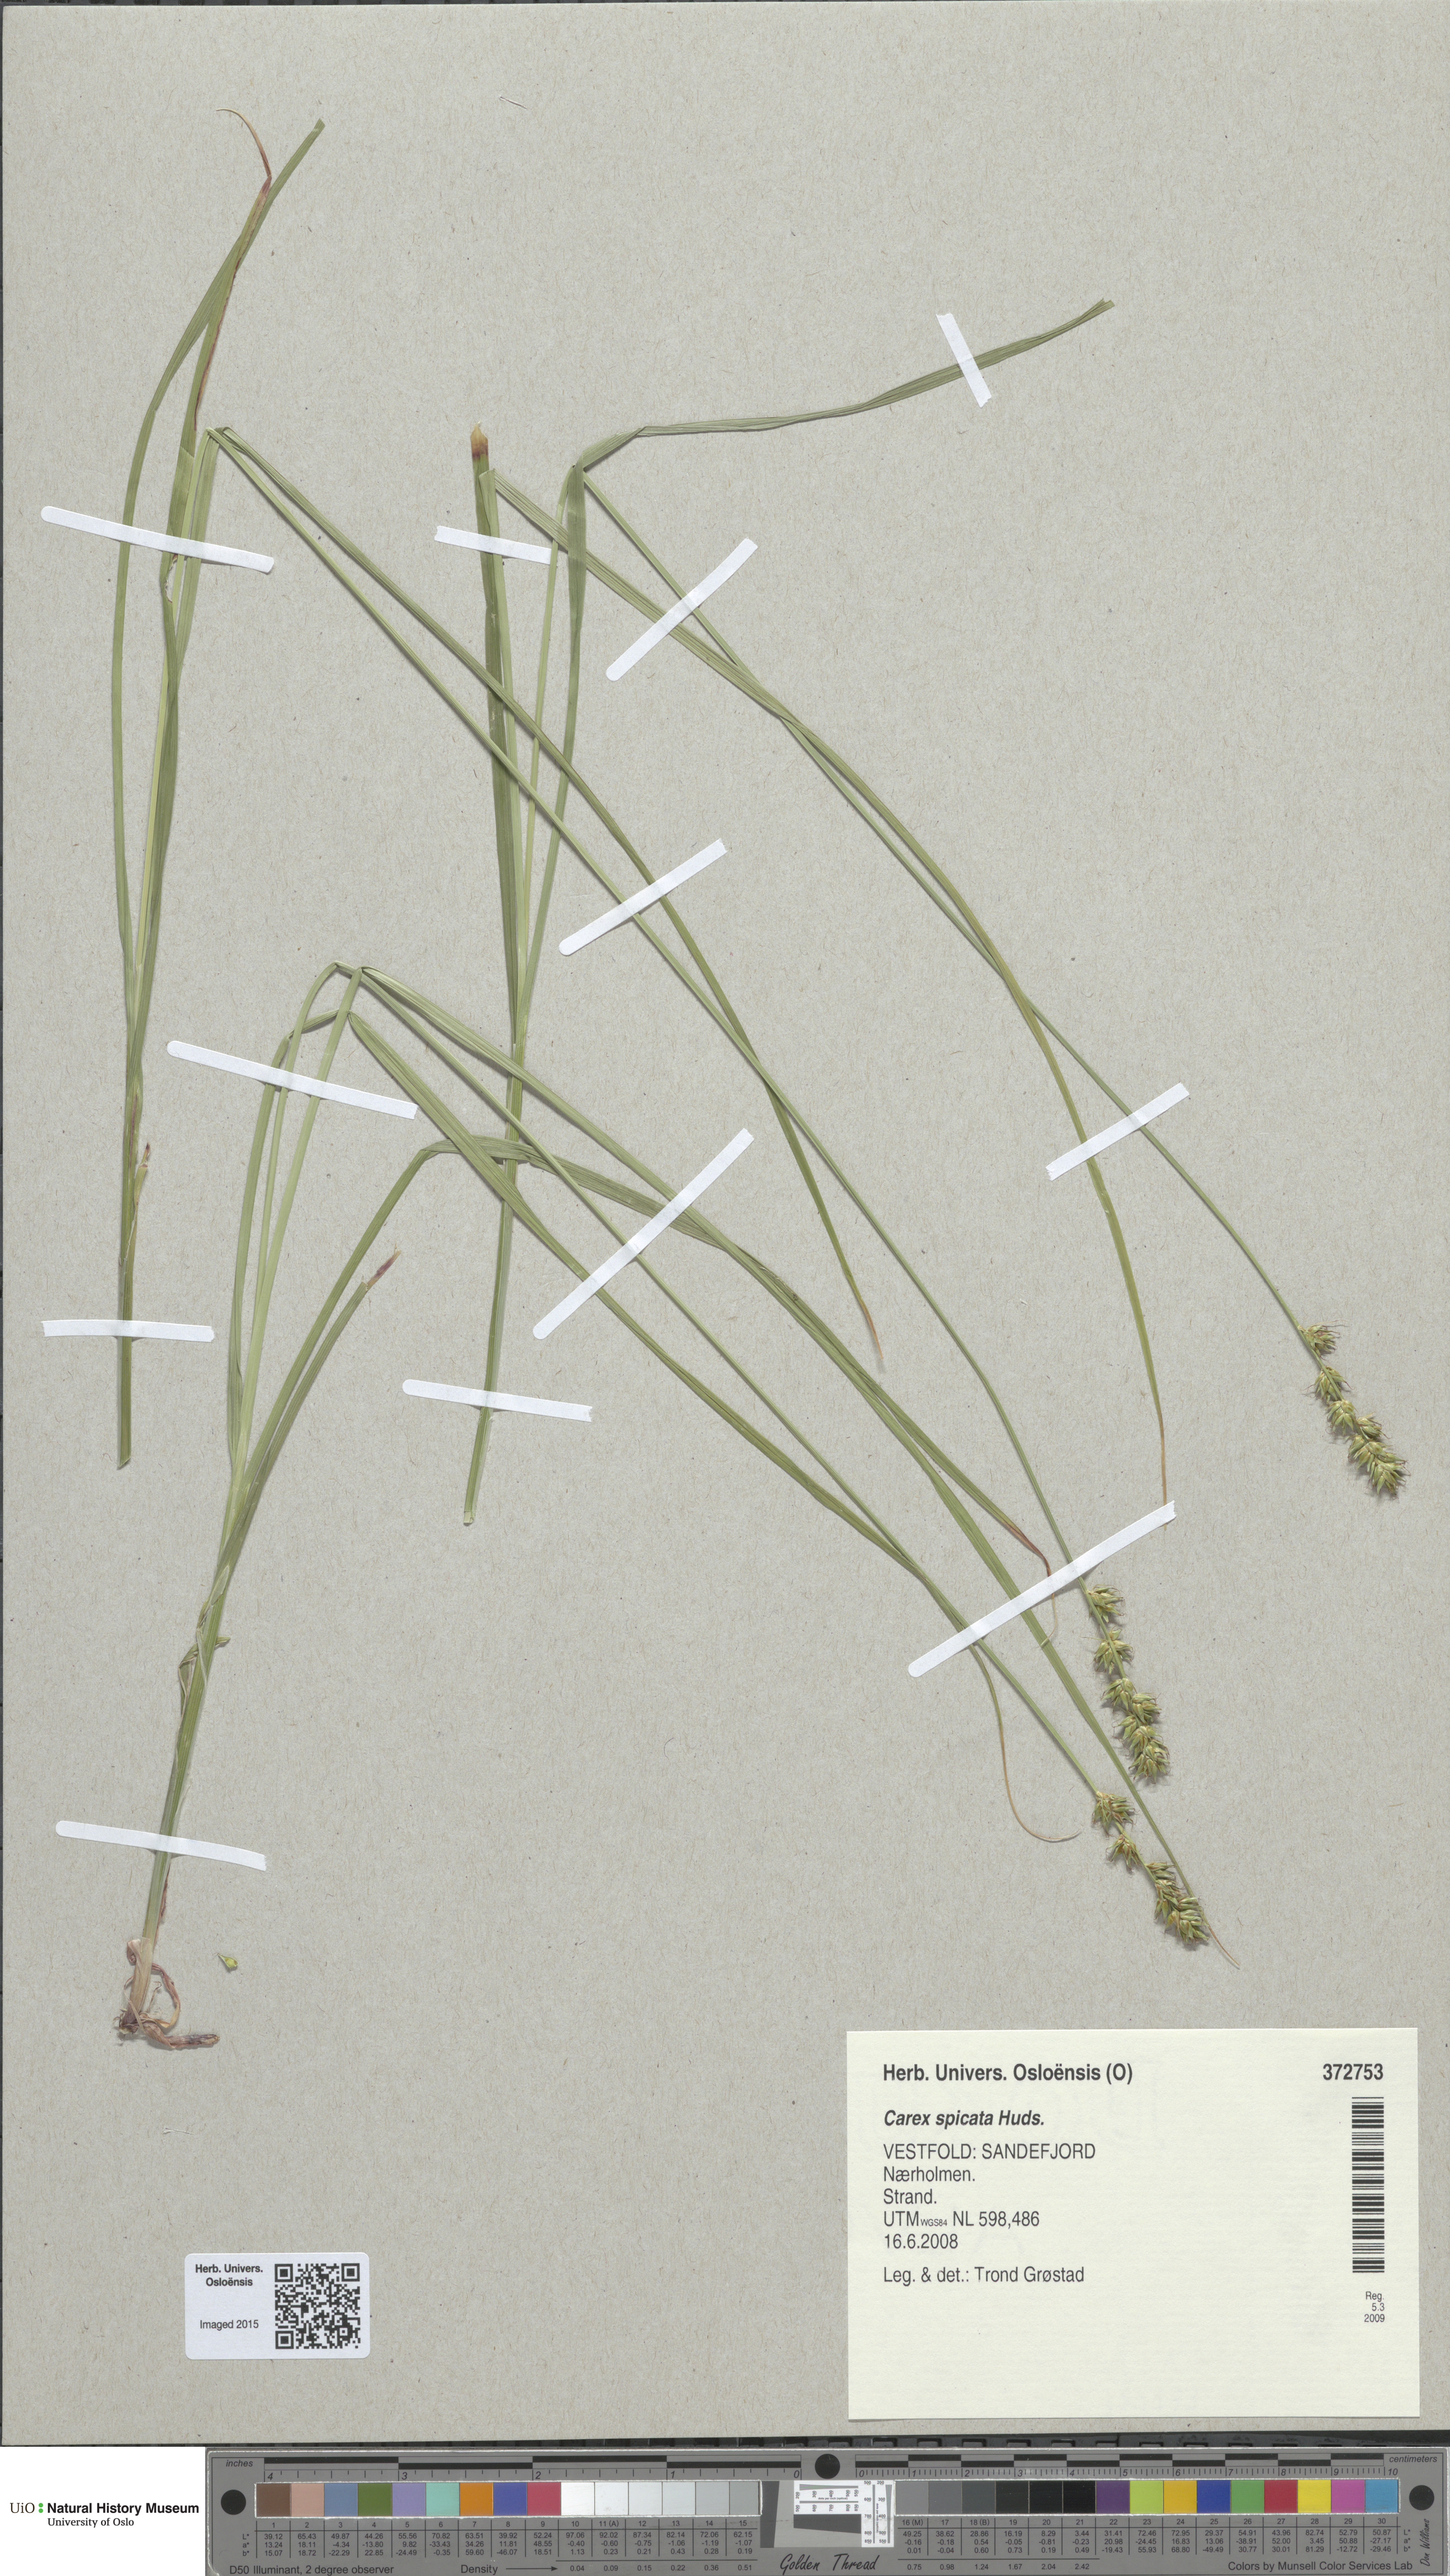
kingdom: Plantae
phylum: Tracheophyta
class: Liliopsida
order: Poales
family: Cyperaceae
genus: Carex
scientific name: Carex spicata
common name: Spiked sedge
